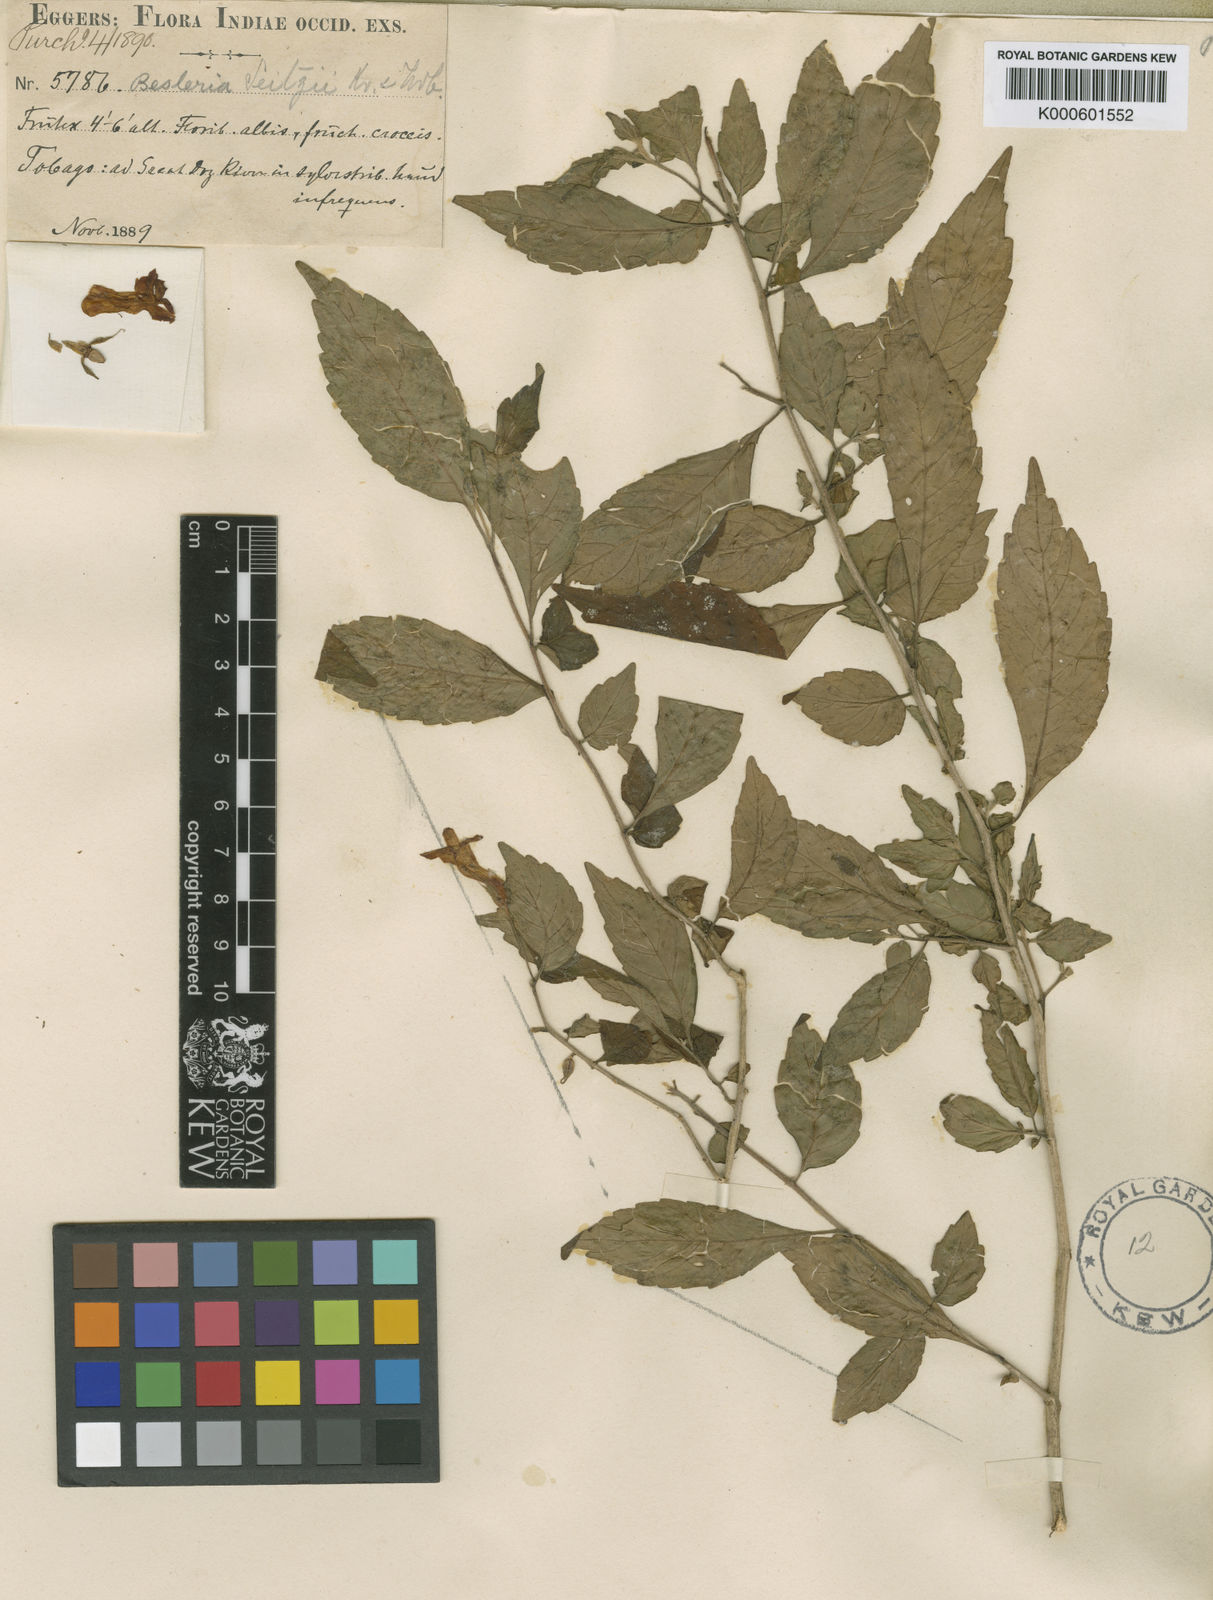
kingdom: Plantae
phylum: Tracheophyta
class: Magnoliopsida
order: Lamiales
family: Gesneriaceae
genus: Besleria
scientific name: Besleria seitzii
